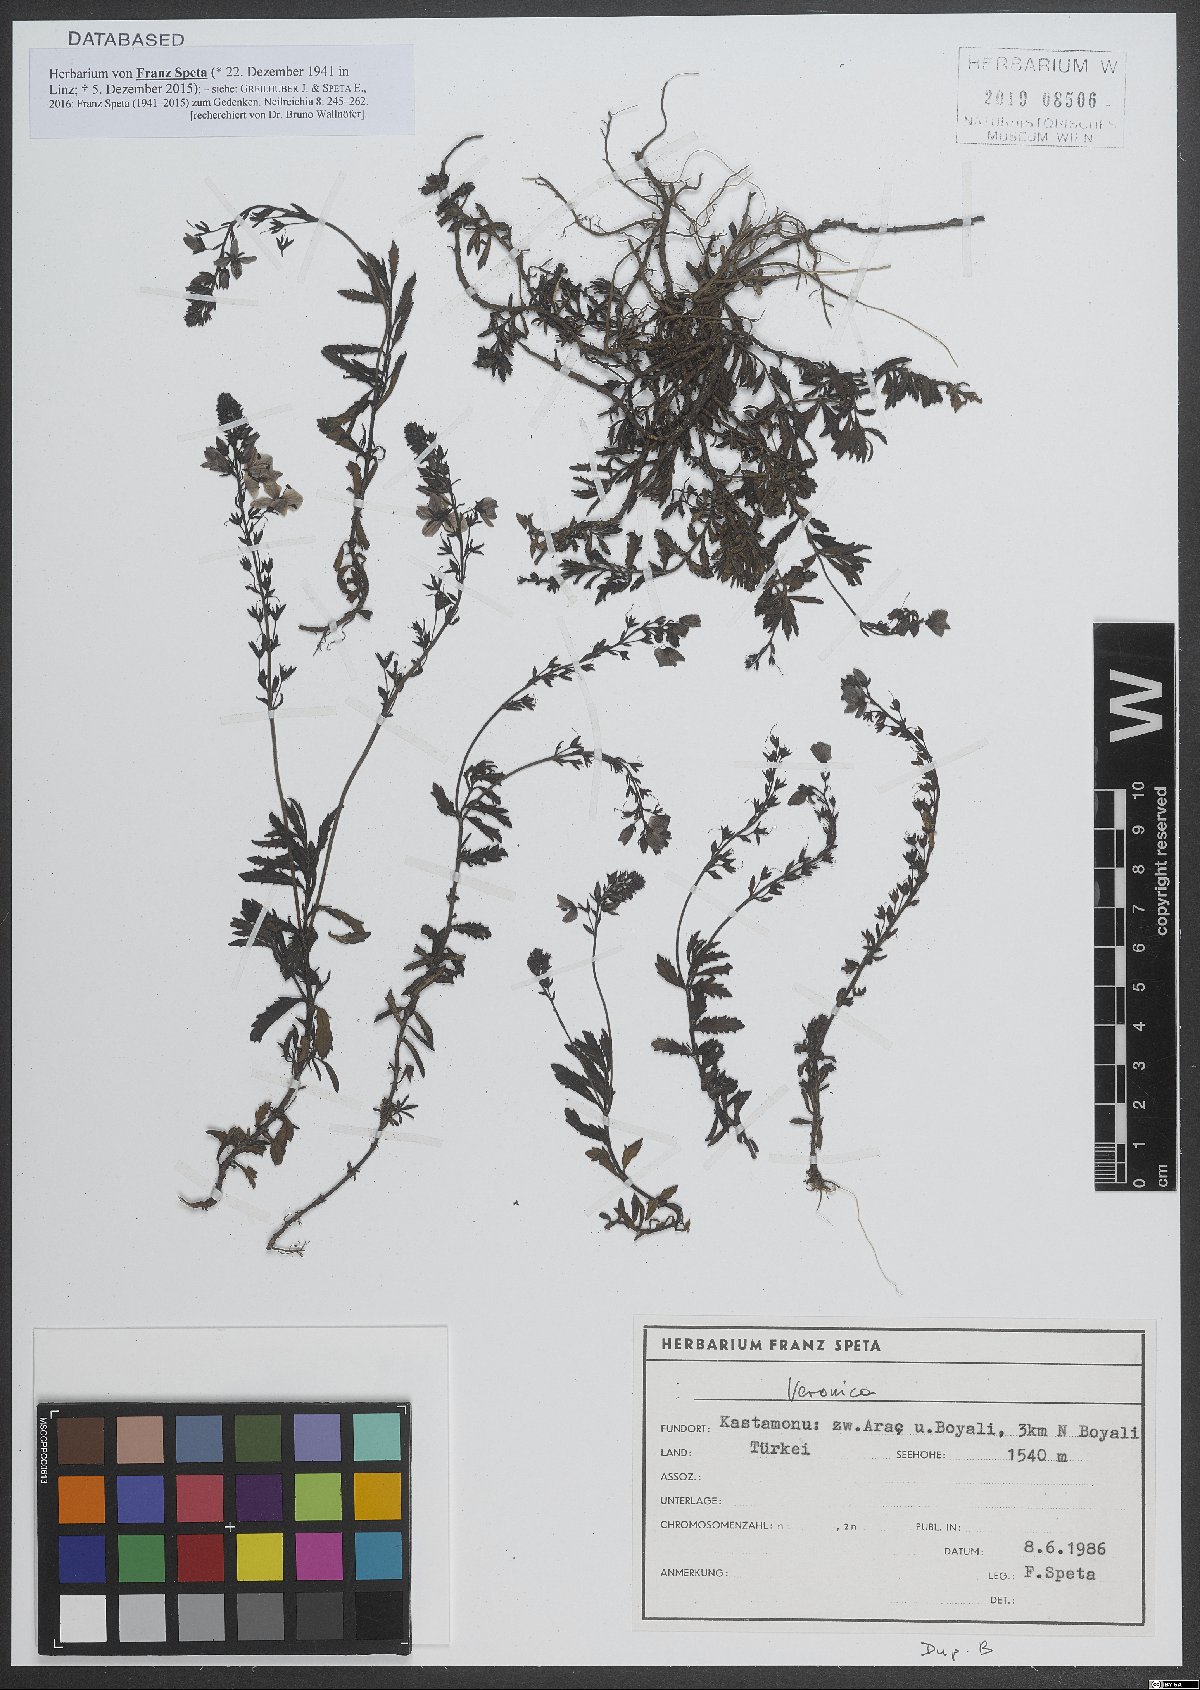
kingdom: Plantae
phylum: Tracheophyta
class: Magnoliopsida
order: Lamiales
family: Plantaginaceae
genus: Veronica
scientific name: Veronica
